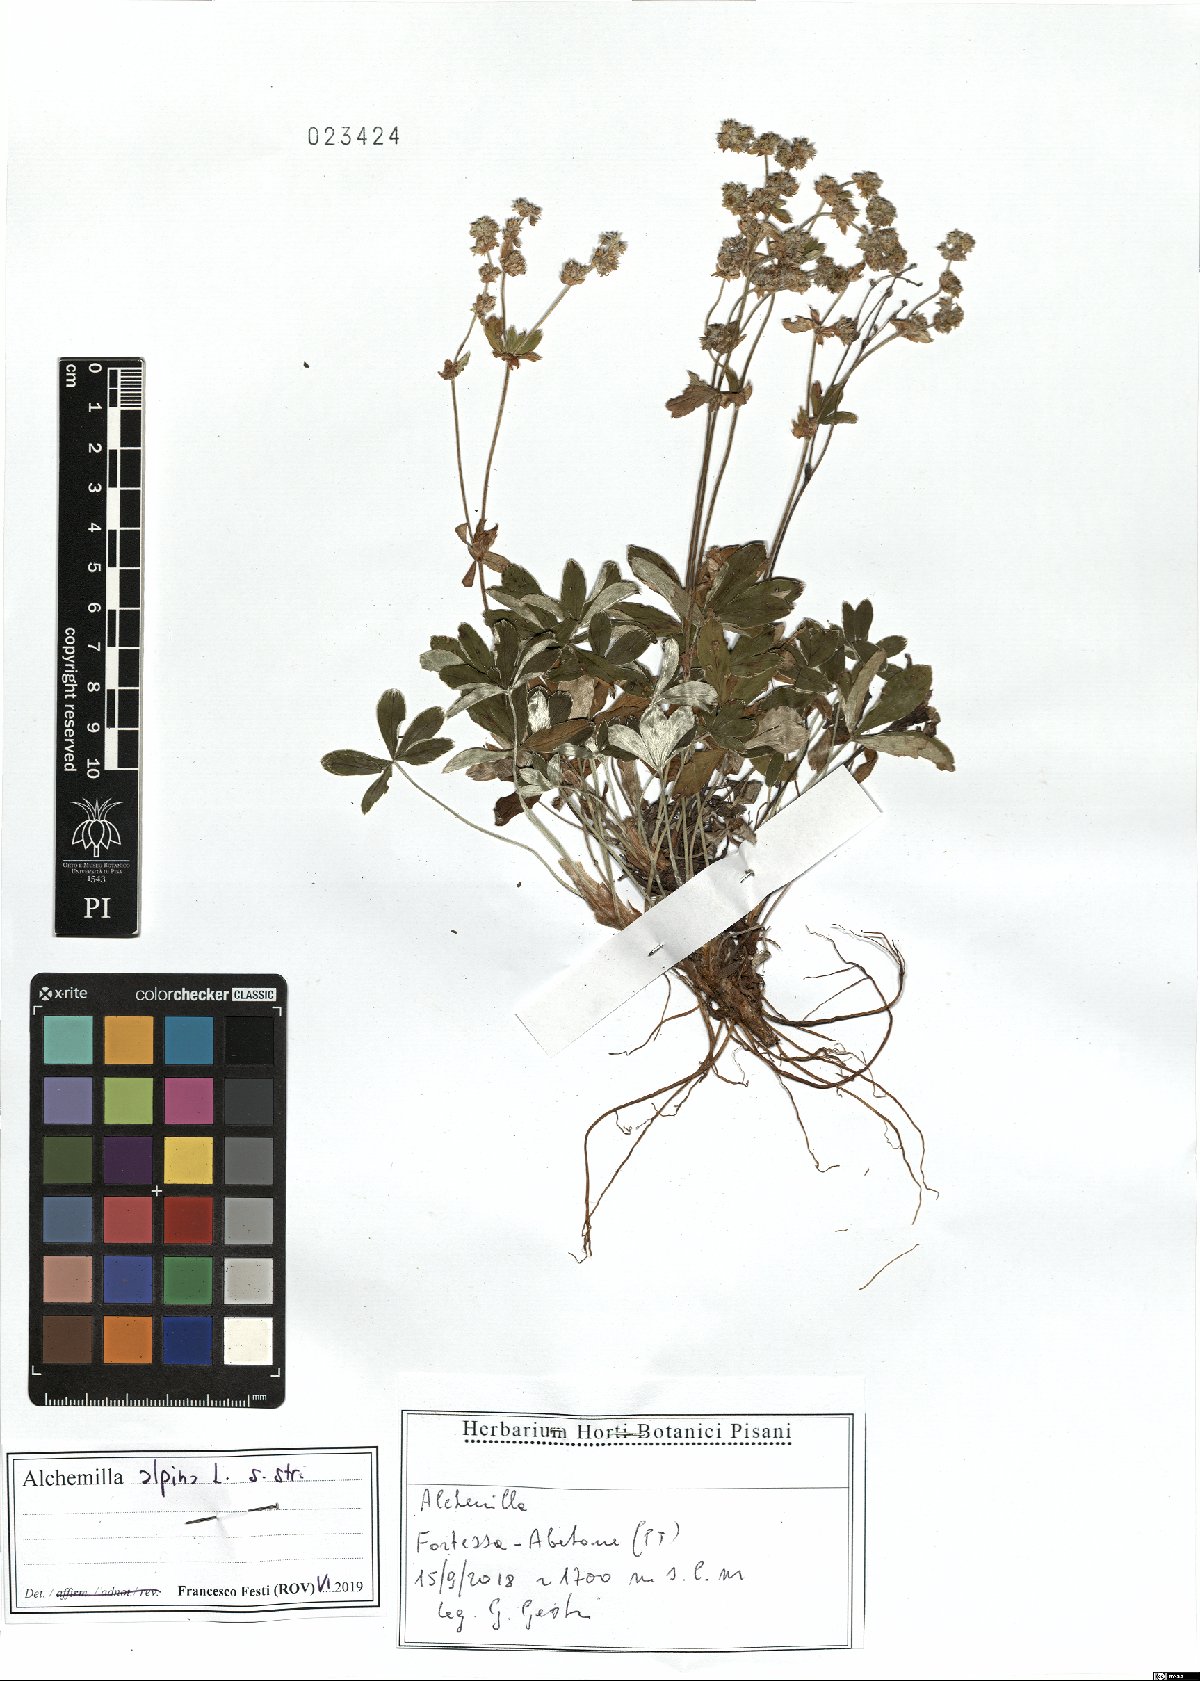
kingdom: Plantae
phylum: Tracheophyta
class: Magnoliopsida
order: Rosales
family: Rosaceae
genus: Alchemilla
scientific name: Alchemilla alpina
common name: Alpine lady's-mantle
